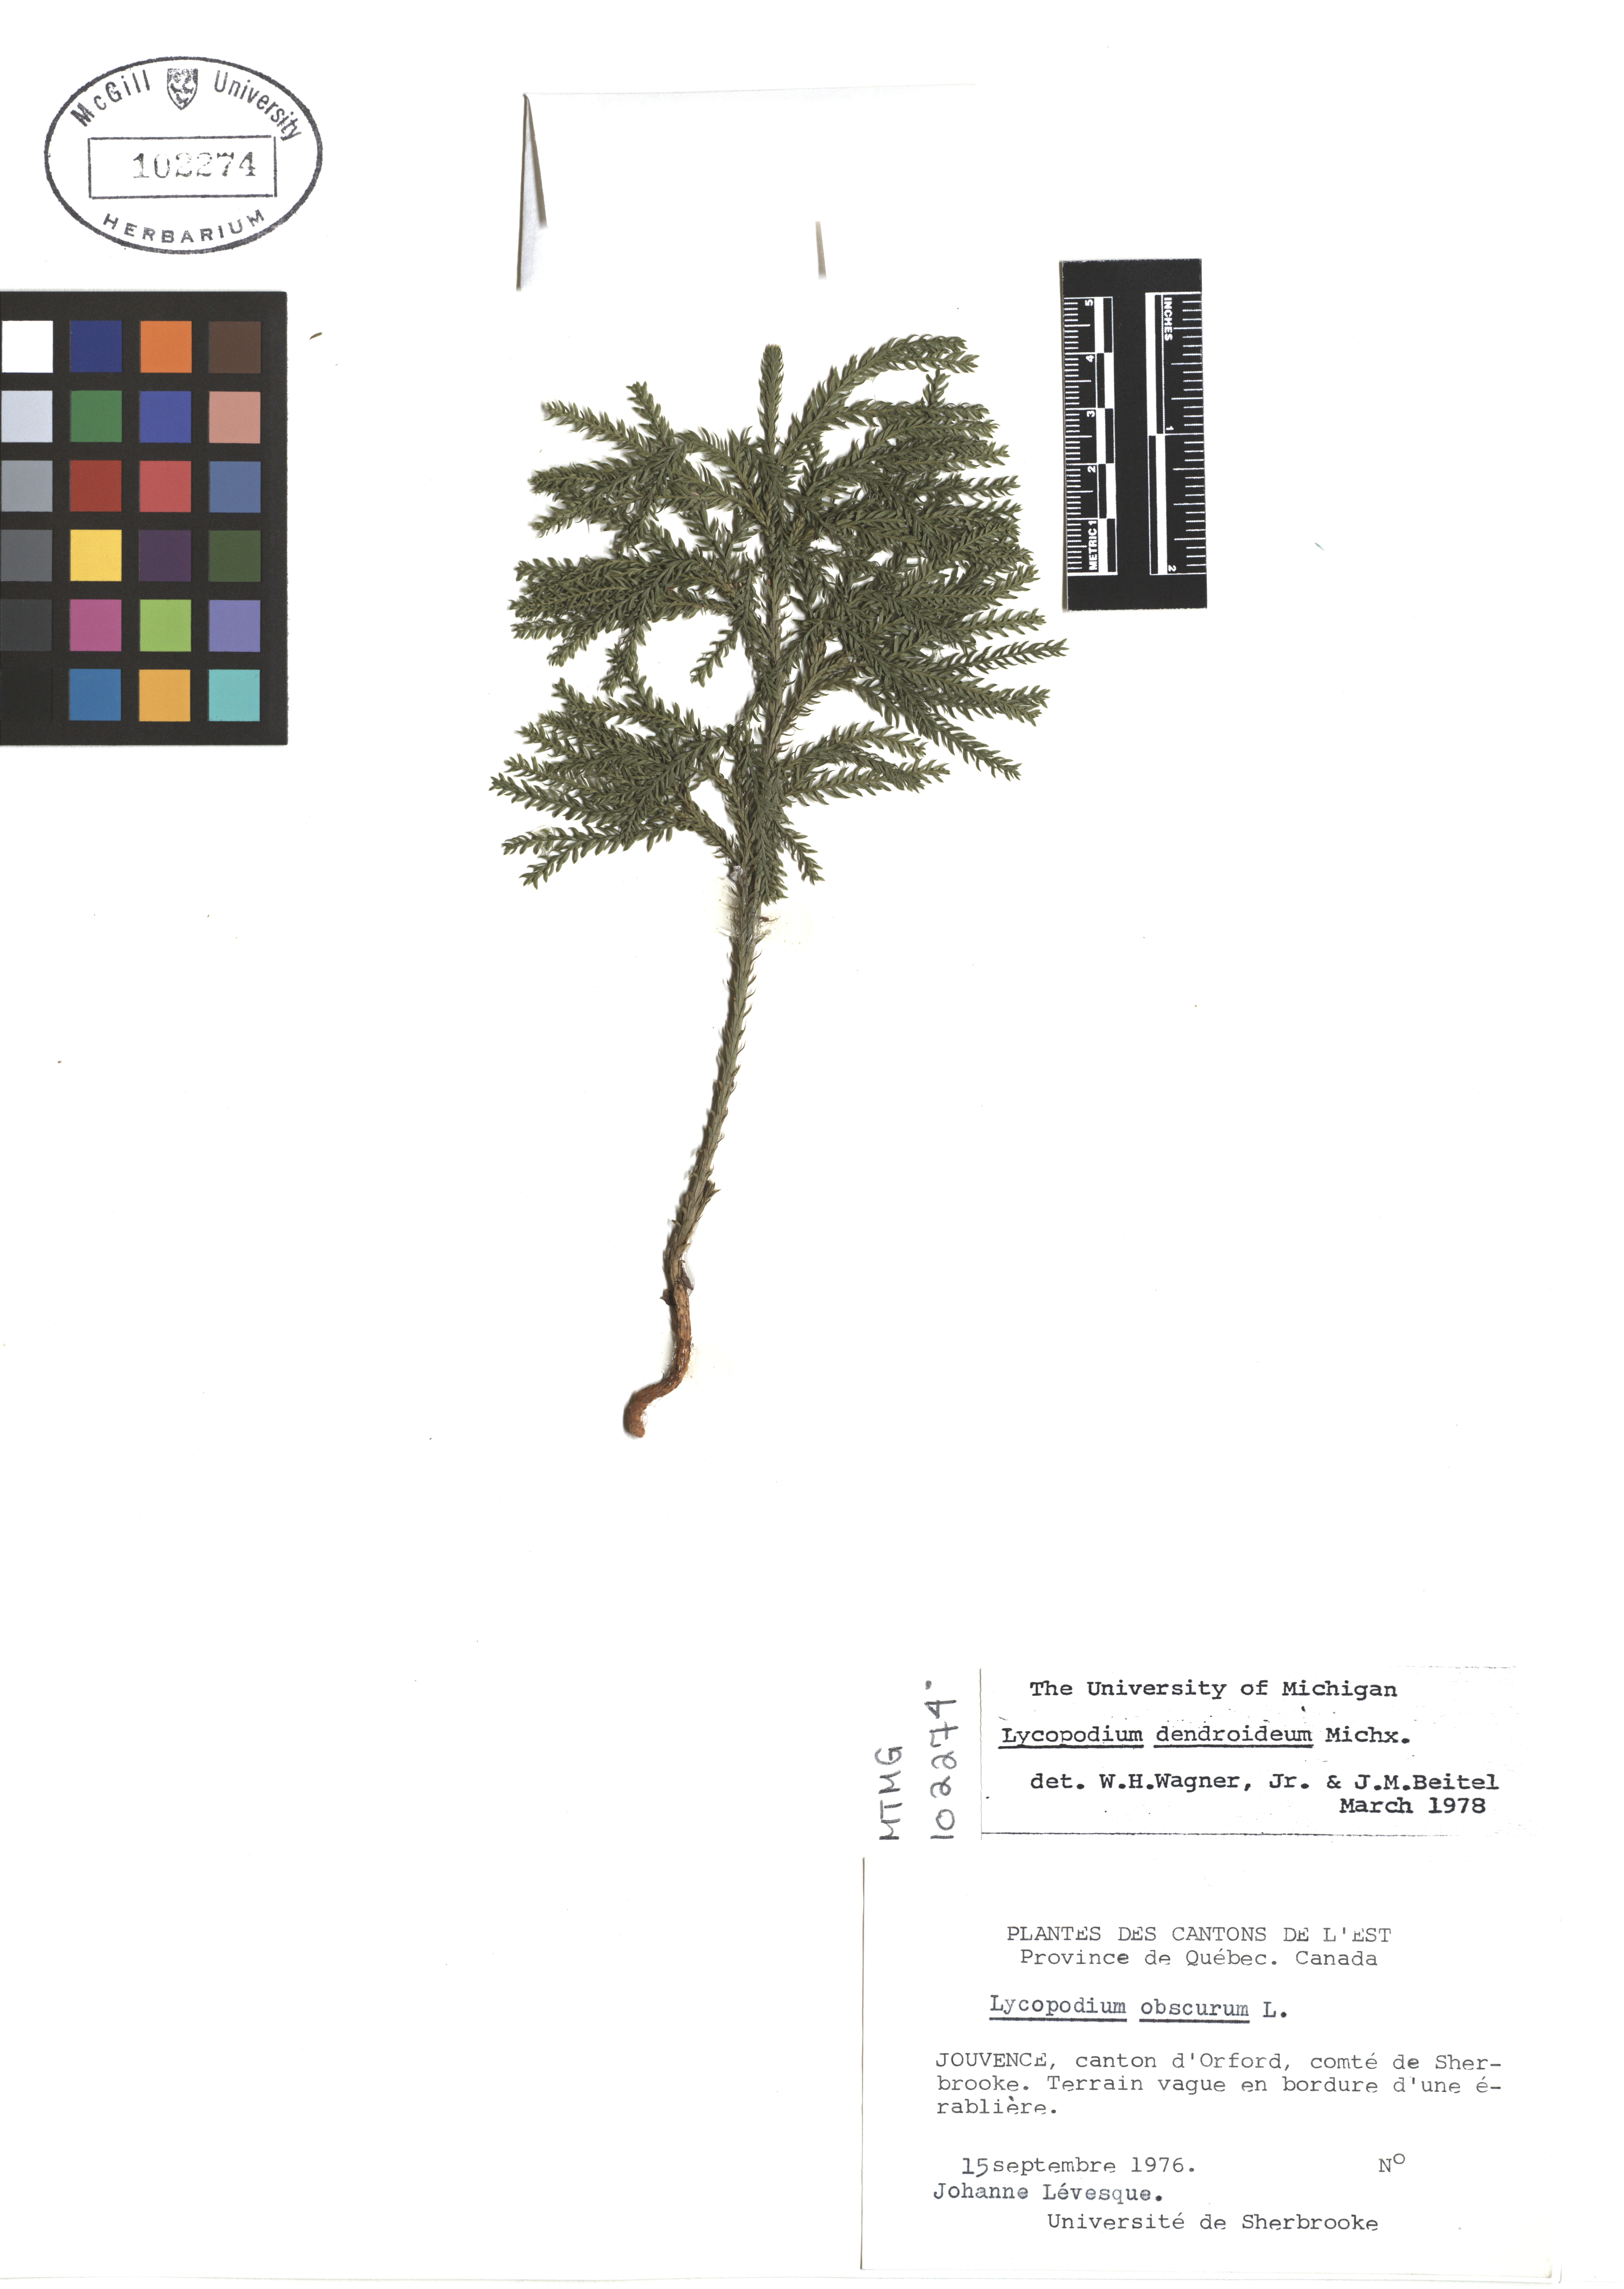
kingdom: Plantae
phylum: Tracheophyta
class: Lycopodiopsida
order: Lycopodiales
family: Lycopodiaceae
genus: Dendrolycopodium
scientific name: Dendrolycopodium dendroideum
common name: Northern tree-clubmoss
